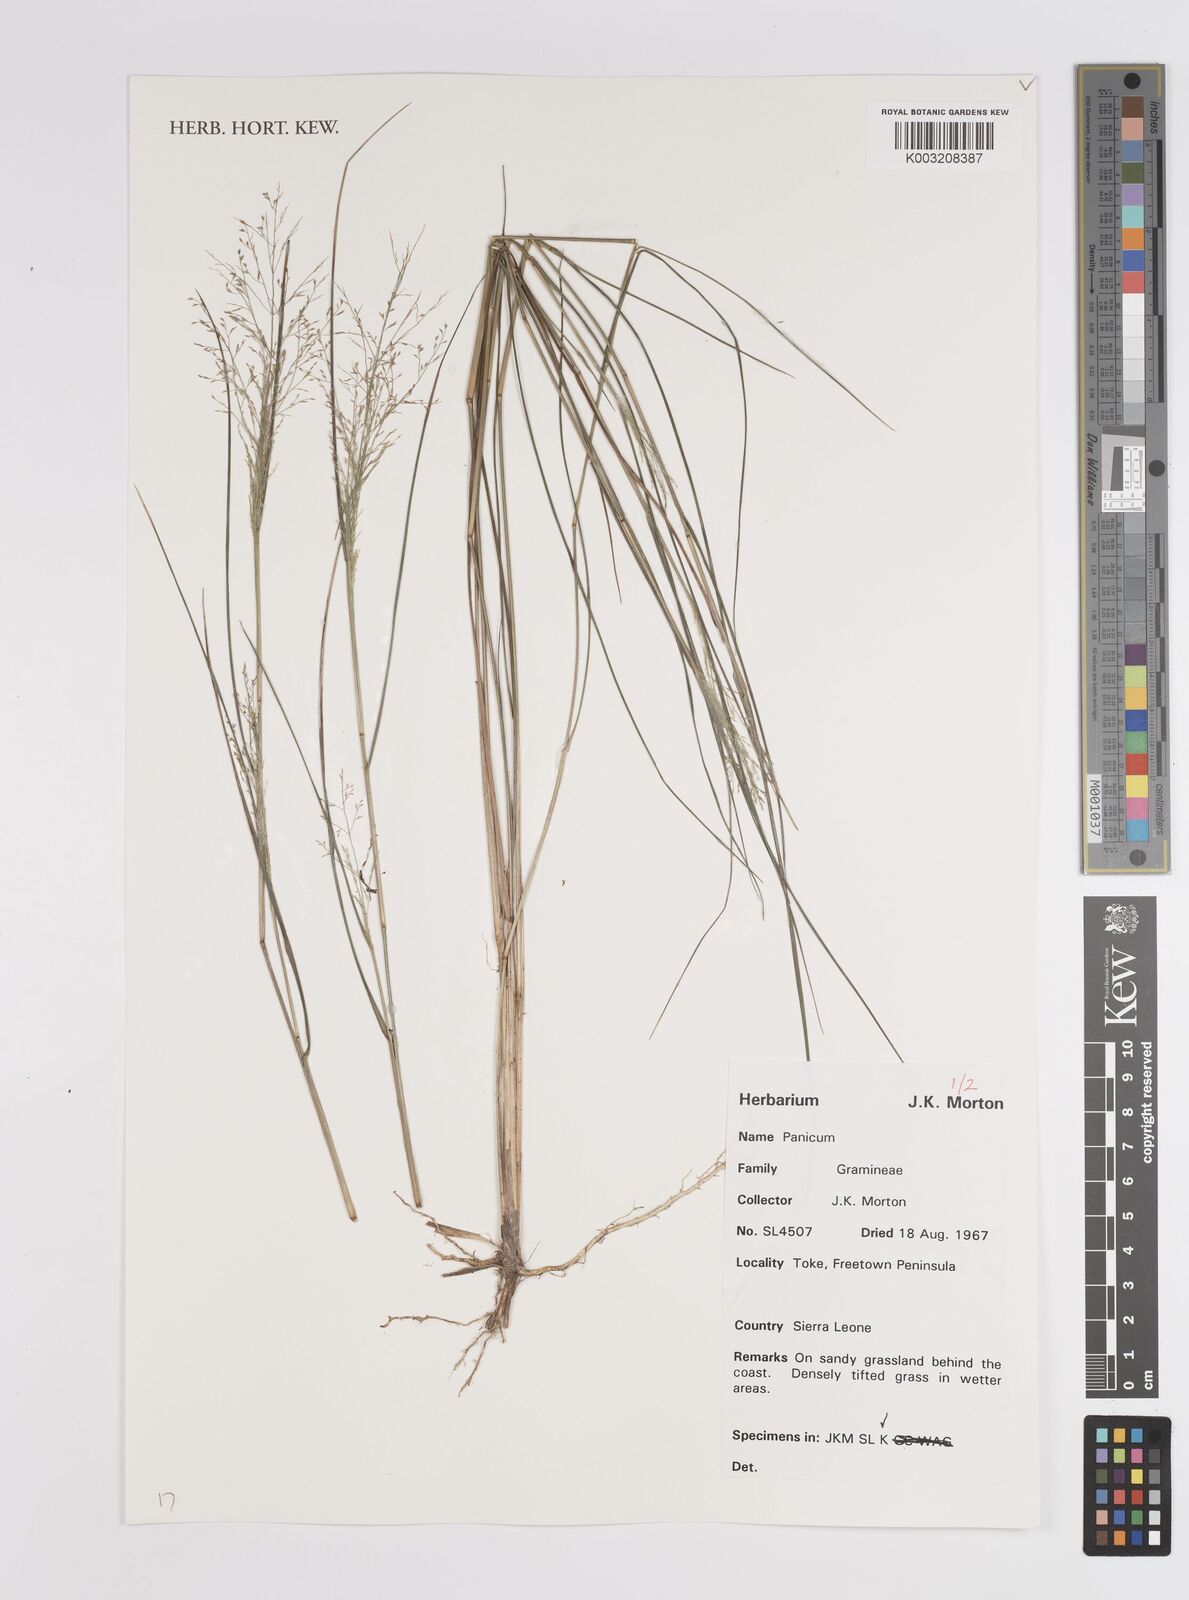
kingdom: Plantae
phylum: Tracheophyta
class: Liliopsida
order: Poales
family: Poaceae
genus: Panicum
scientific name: Panicum
